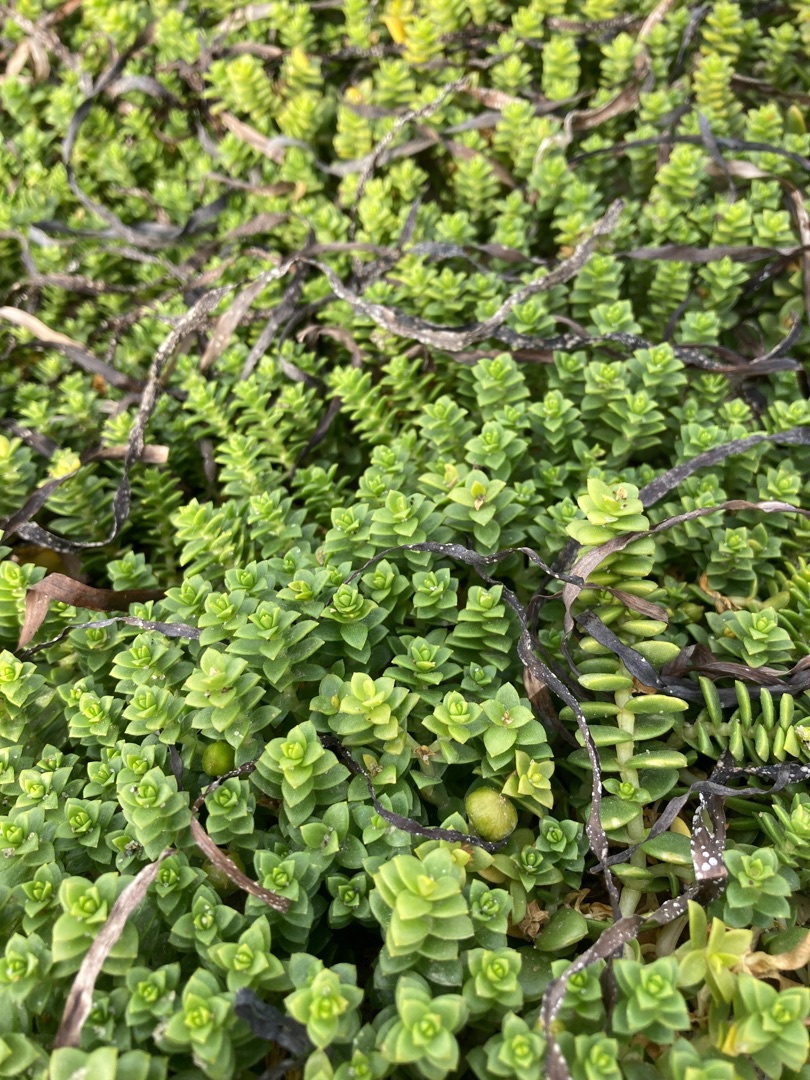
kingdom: Plantae
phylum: Tracheophyta
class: Magnoliopsida
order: Caryophyllales
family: Caryophyllaceae
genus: Honckenya
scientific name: Honckenya peploides
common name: Strandarve
